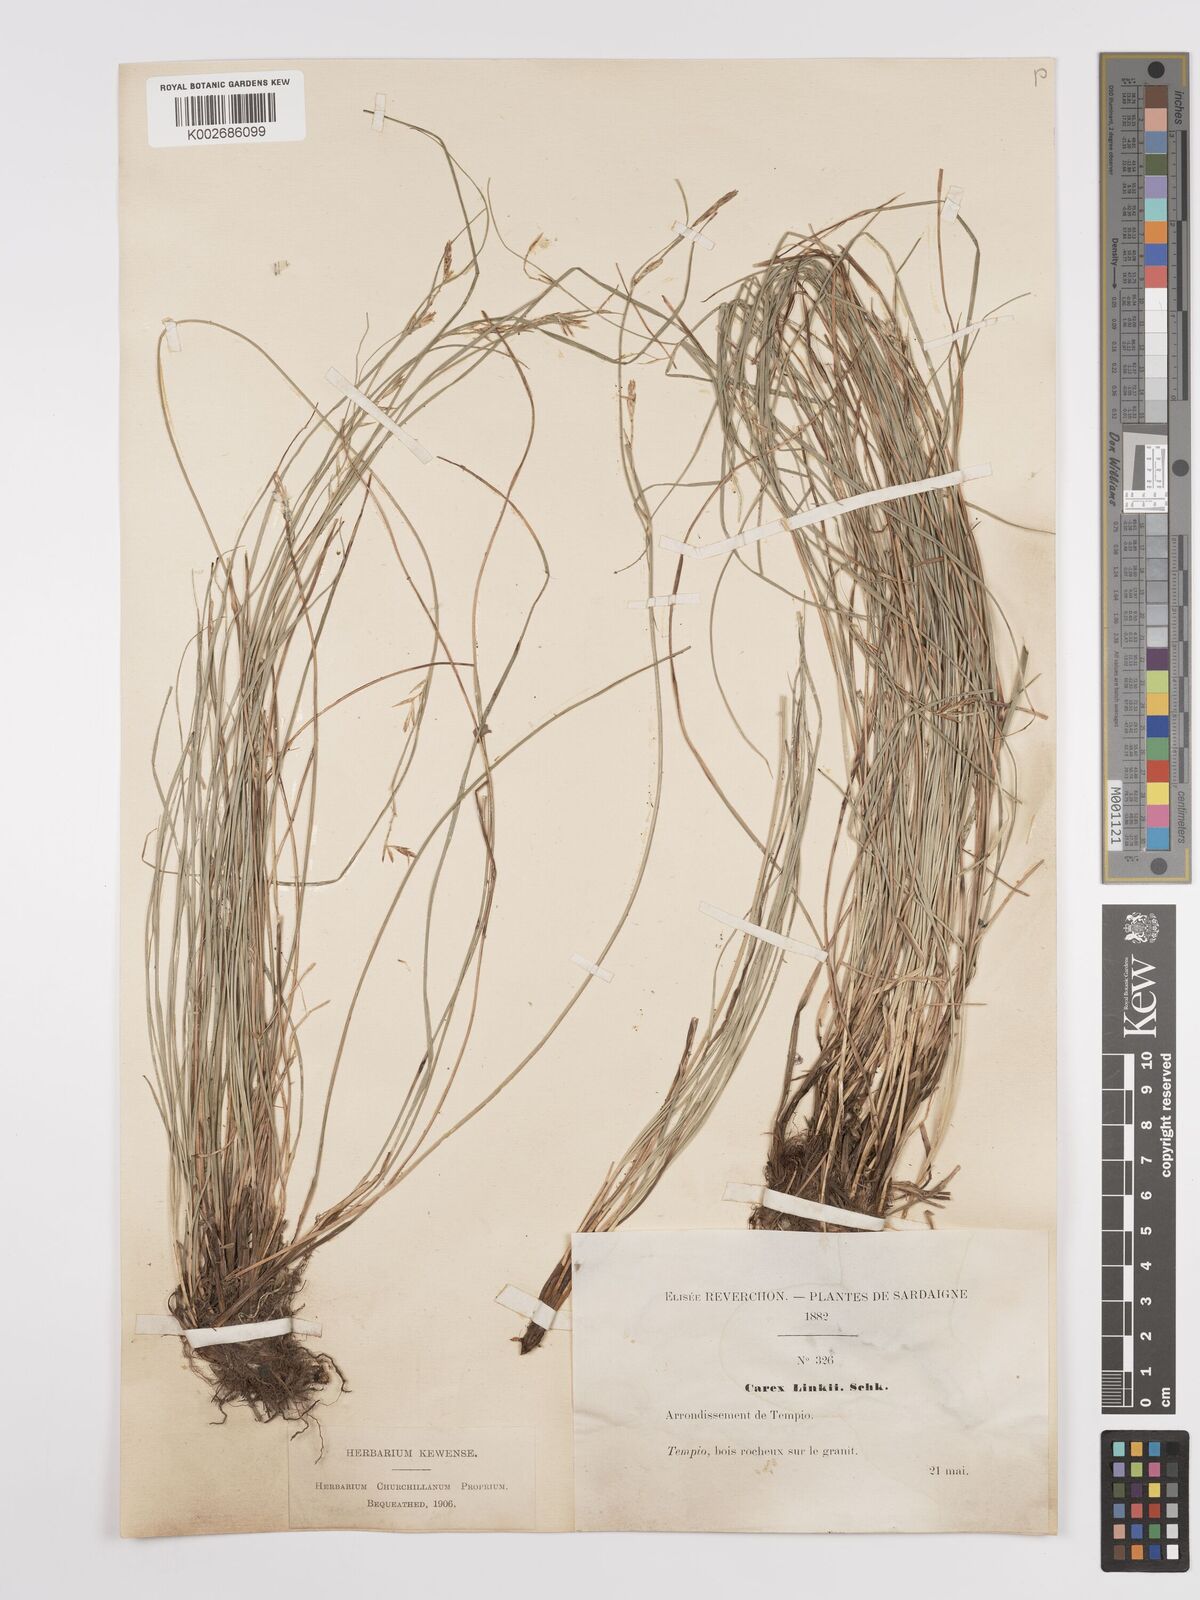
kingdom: Plantae
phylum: Tracheophyta
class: Liliopsida
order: Poales
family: Cyperaceae
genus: Carex
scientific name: Carex distachya
